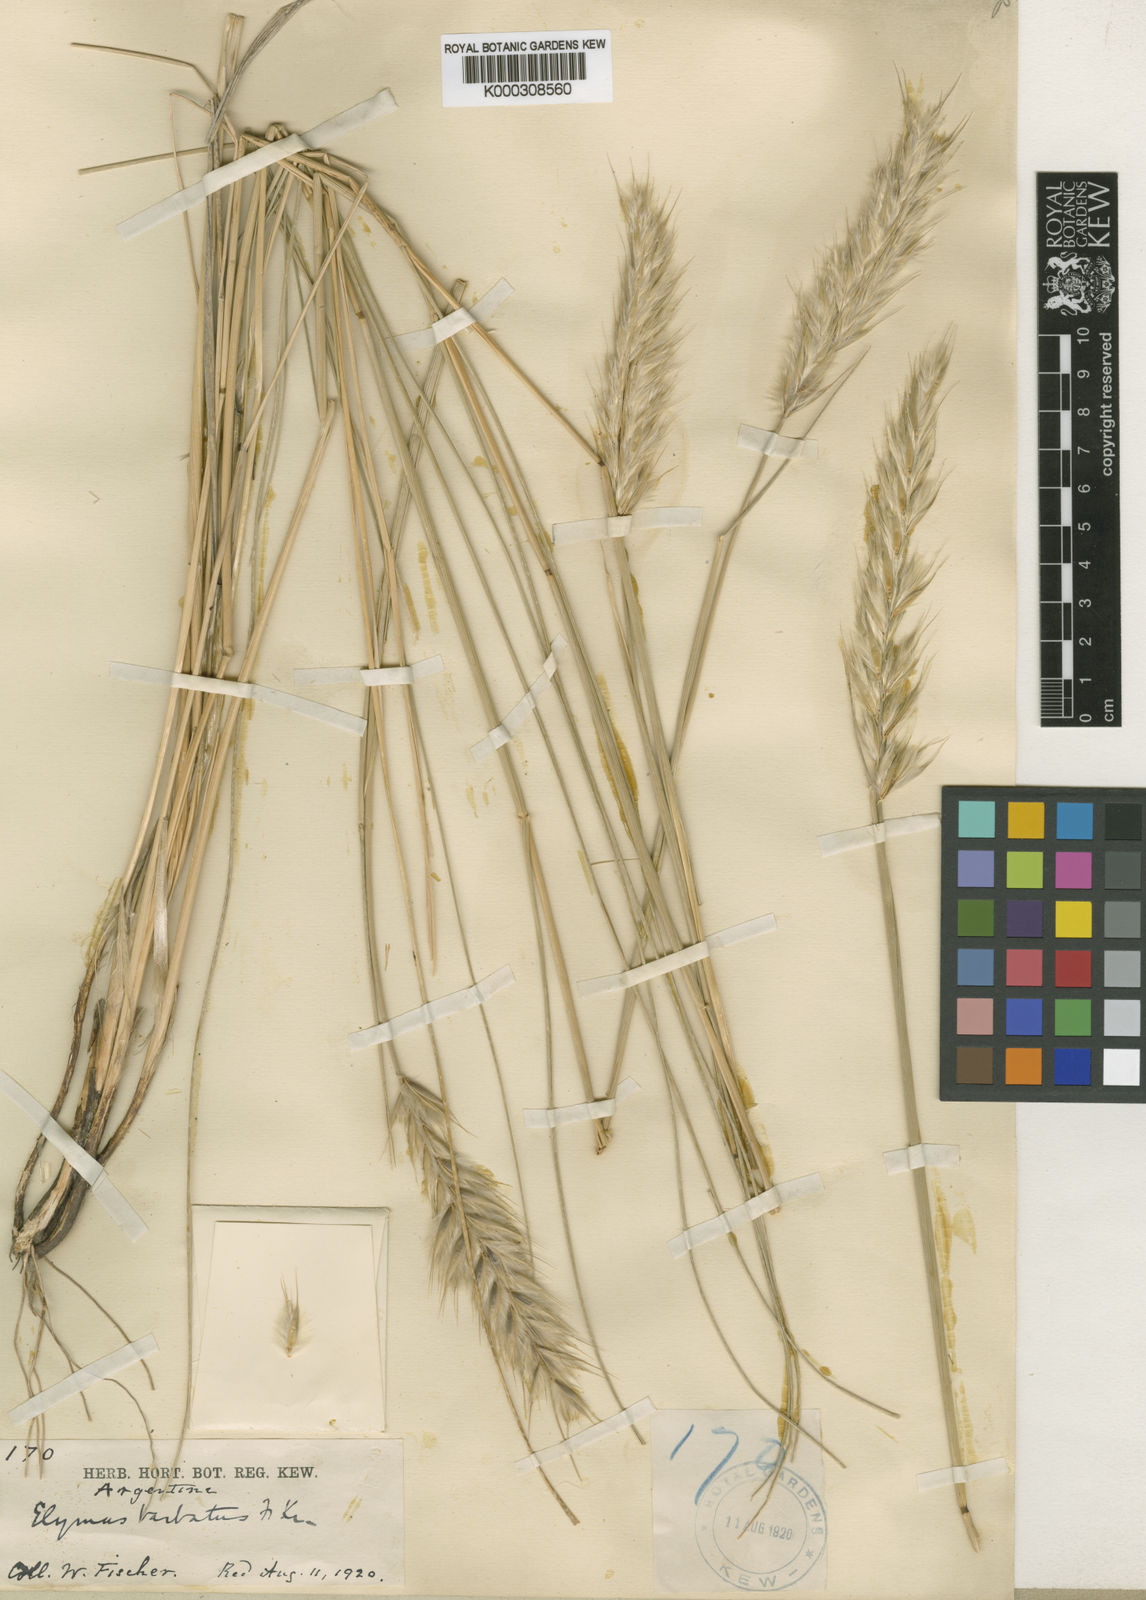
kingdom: Plantae
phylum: Tracheophyta
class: Liliopsida
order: Poales
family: Poaceae
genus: Leymus
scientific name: Leymus erianthus
